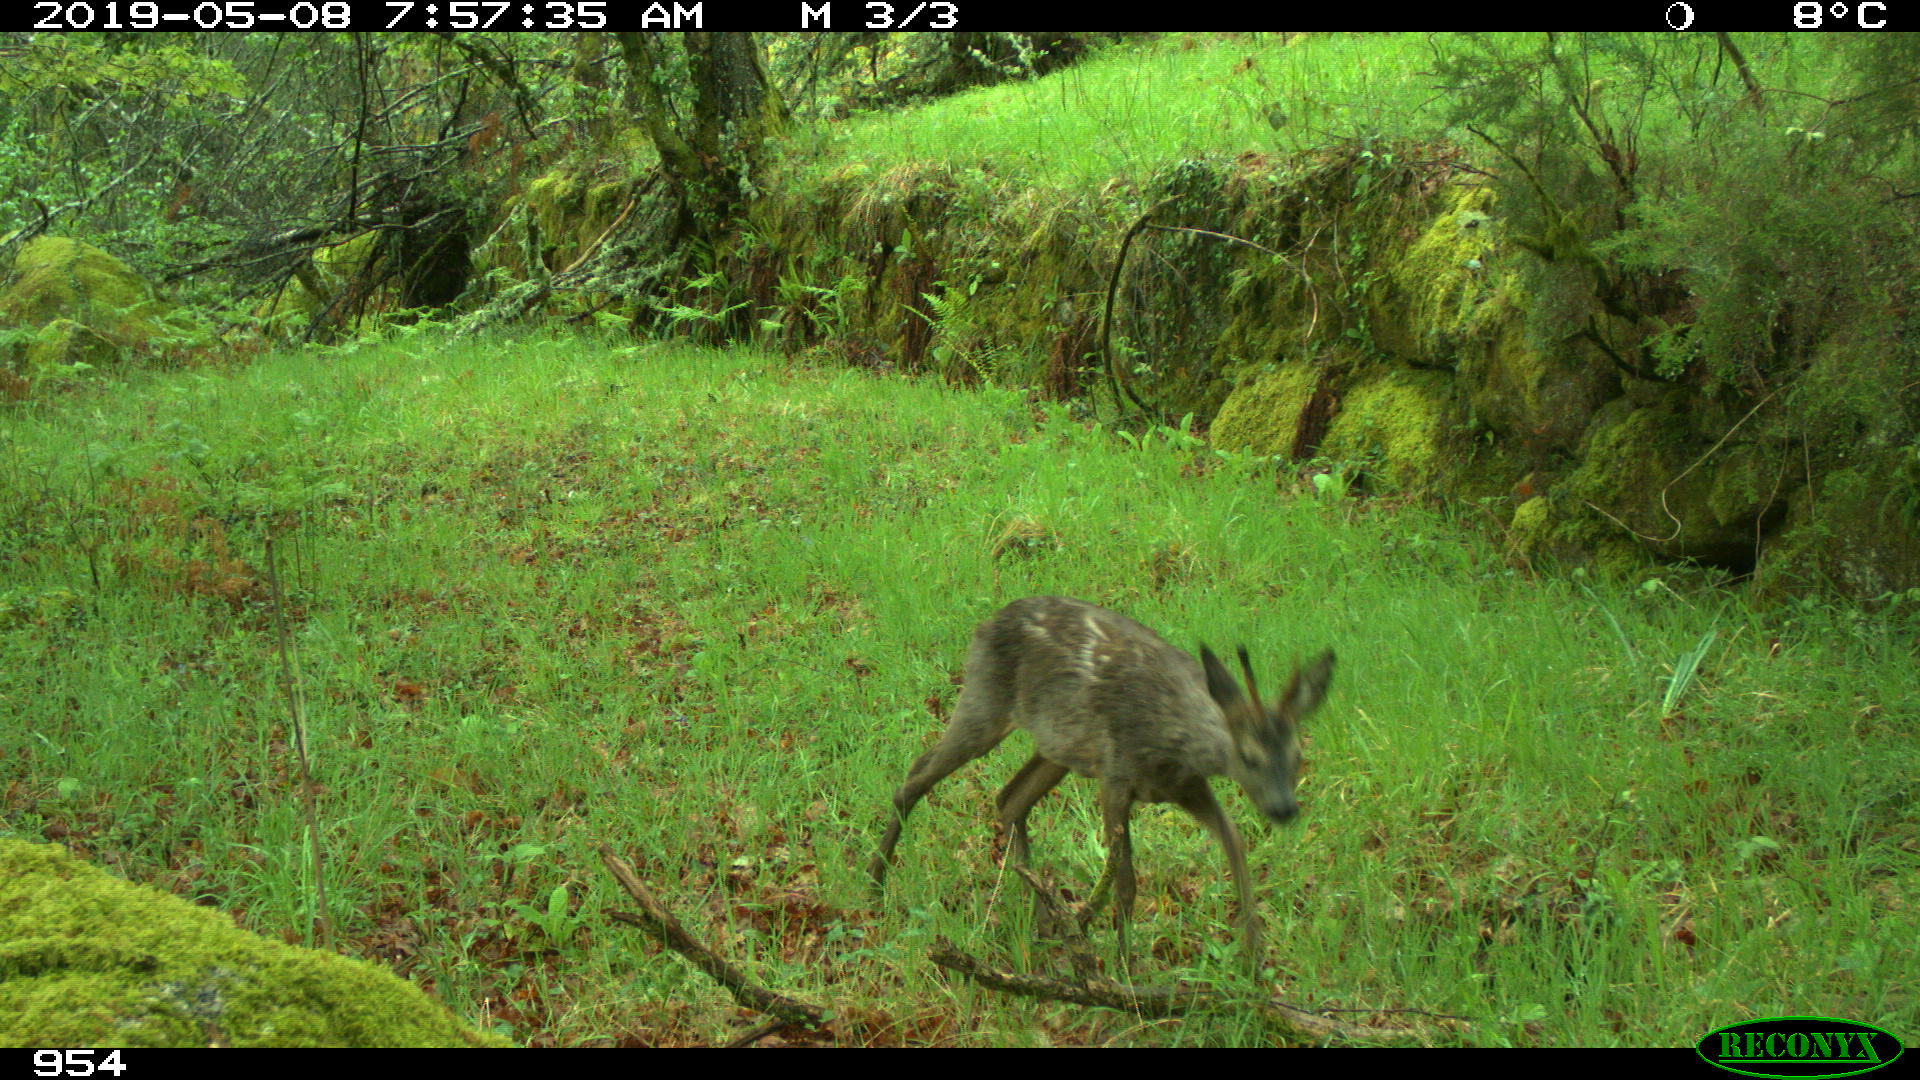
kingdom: Animalia
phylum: Chordata
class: Mammalia
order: Artiodactyla
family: Cervidae
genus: Capreolus
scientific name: Capreolus capreolus
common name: Western roe deer
